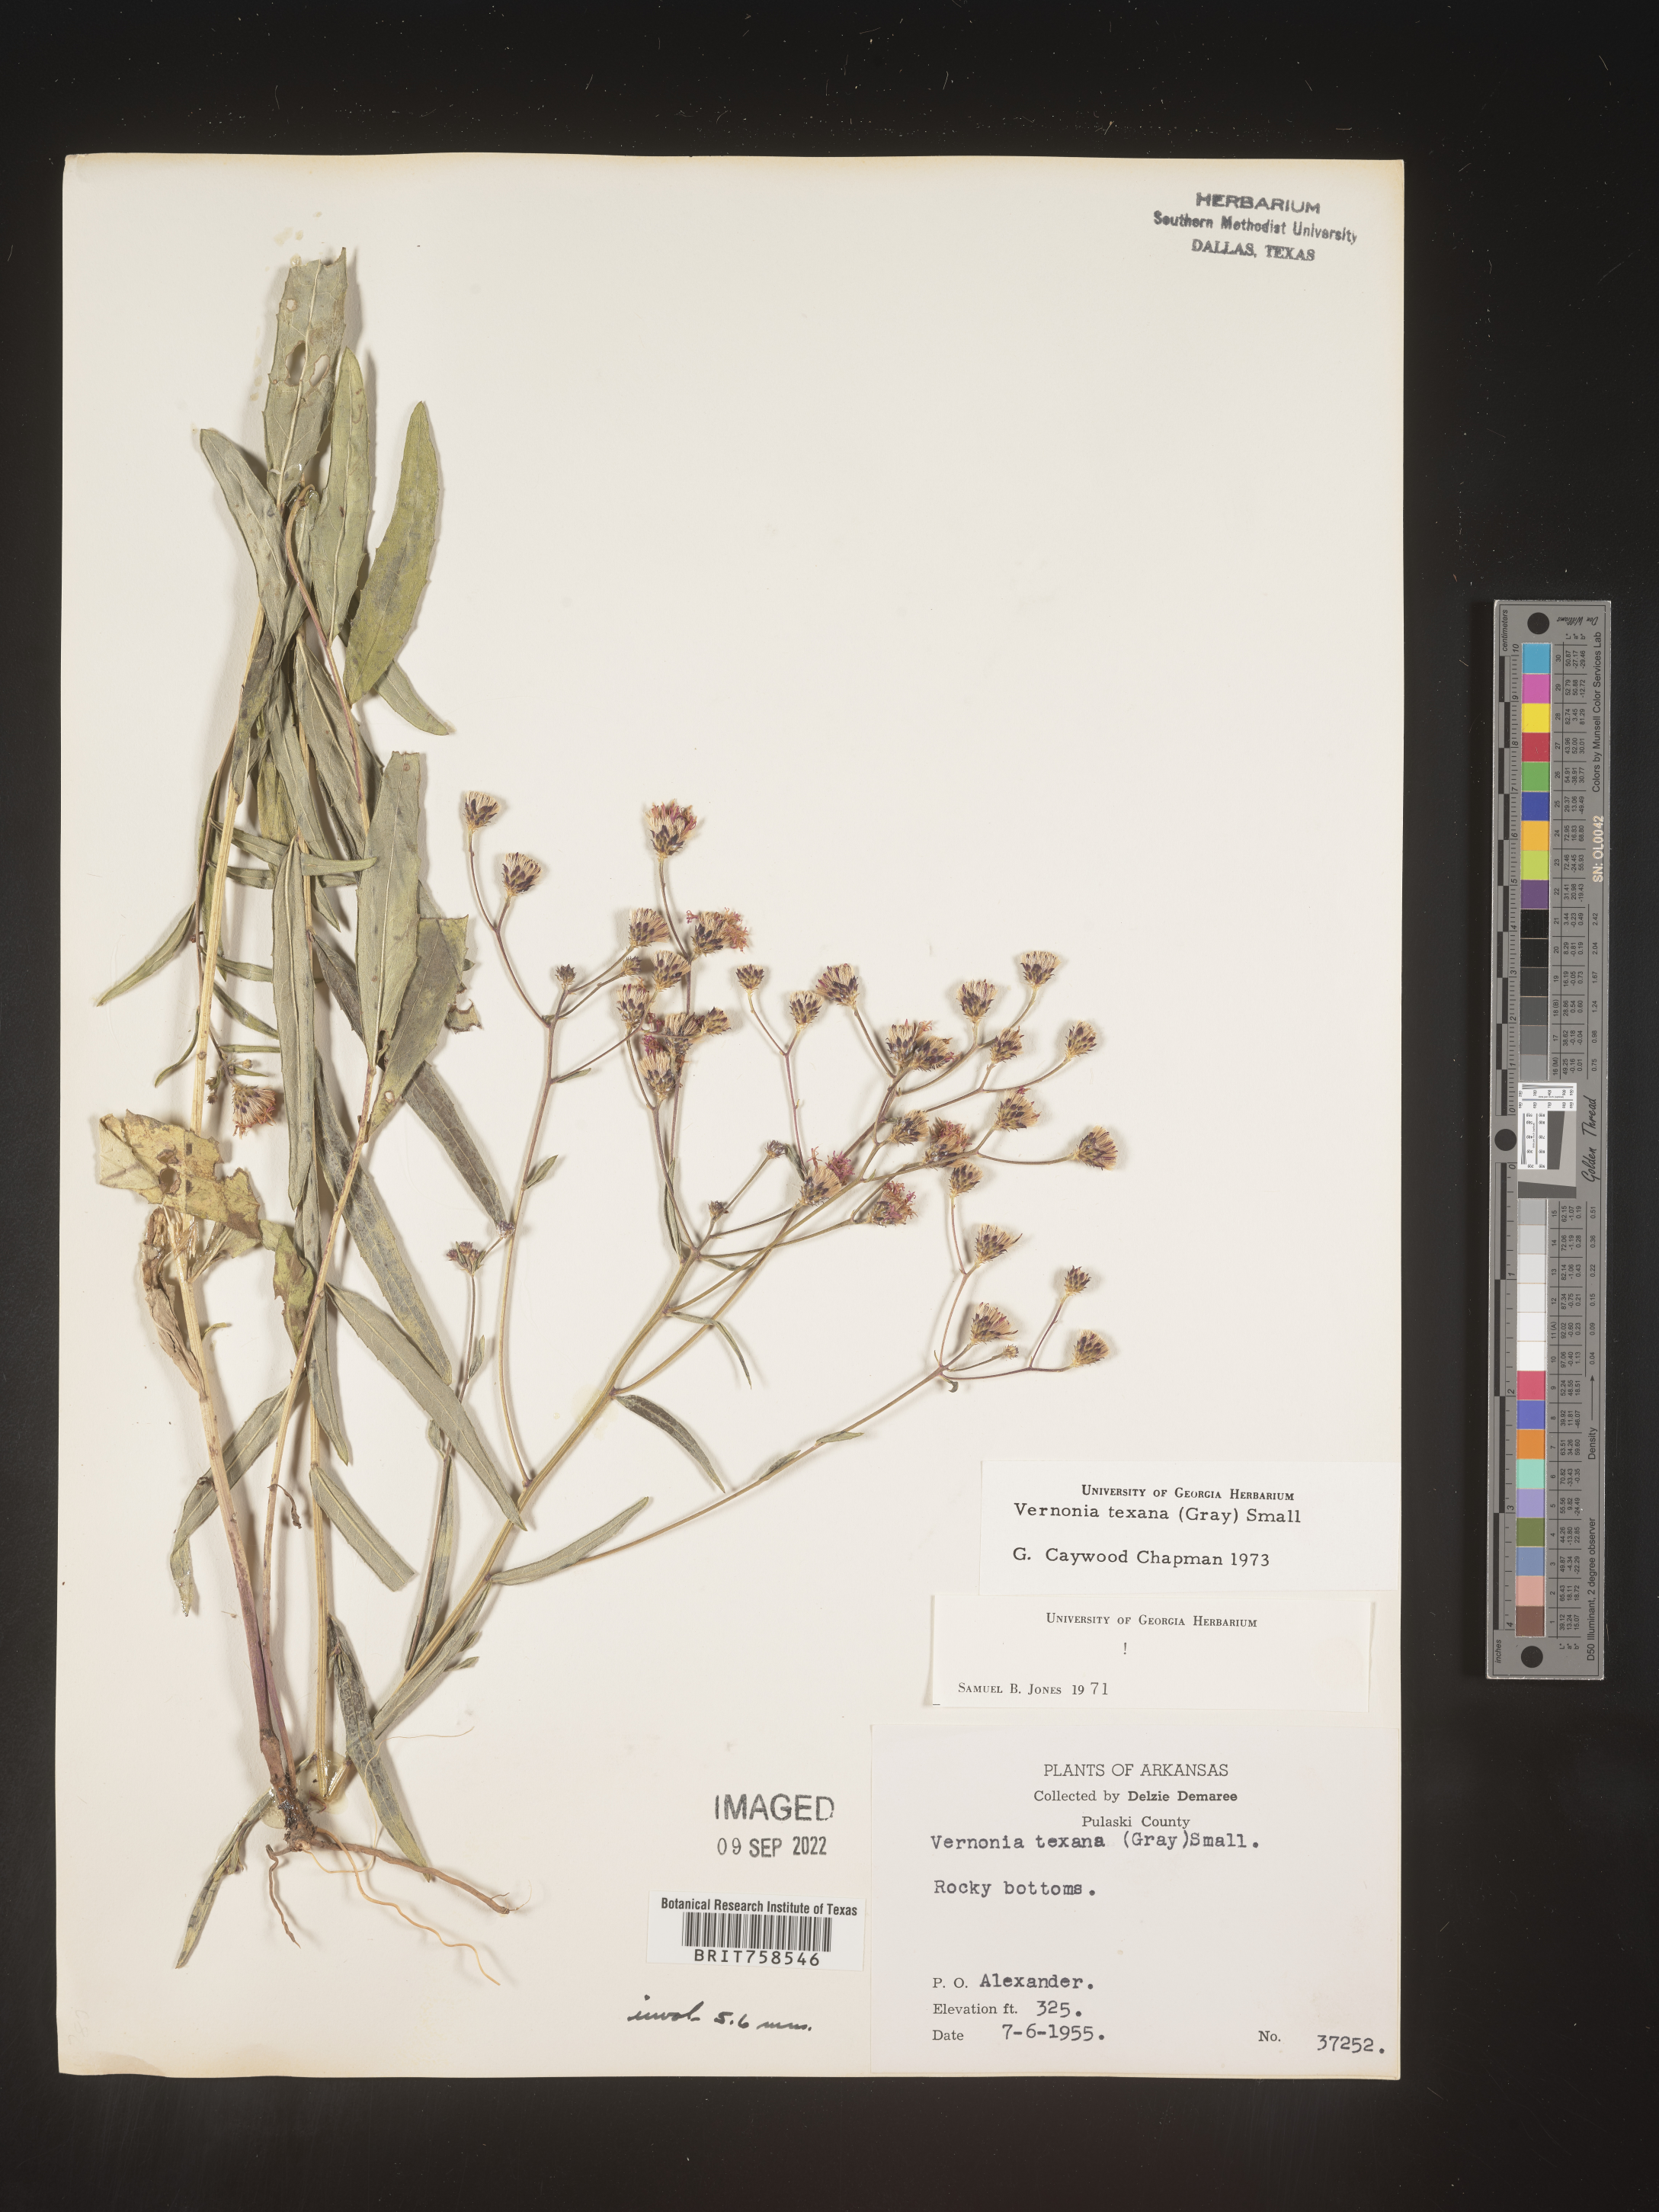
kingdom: Plantae
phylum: Tracheophyta
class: Magnoliopsida
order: Asterales
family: Asteraceae
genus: Vernonia
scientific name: Vernonia texana
